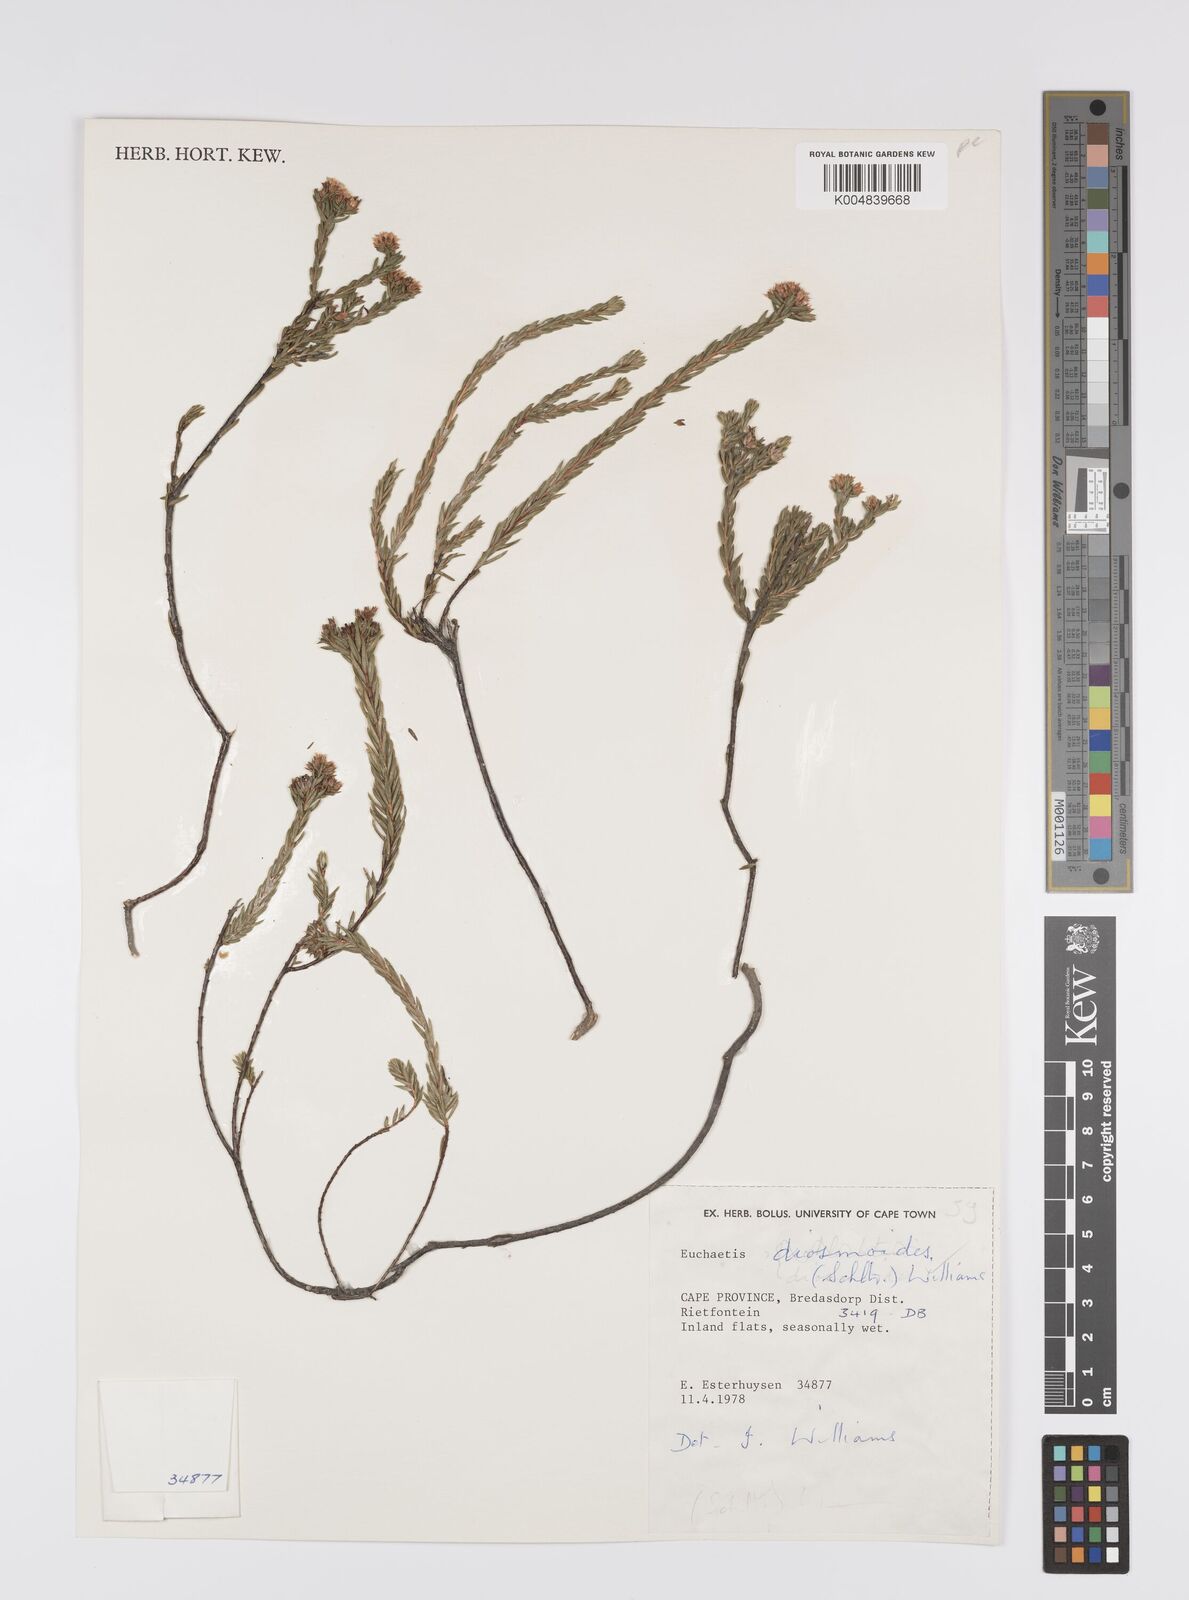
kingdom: Plantae
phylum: Tracheophyta
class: Magnoliopsida
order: Sapindales
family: Rutaceae
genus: Euchaetis
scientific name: Euchaetis diosmoides
